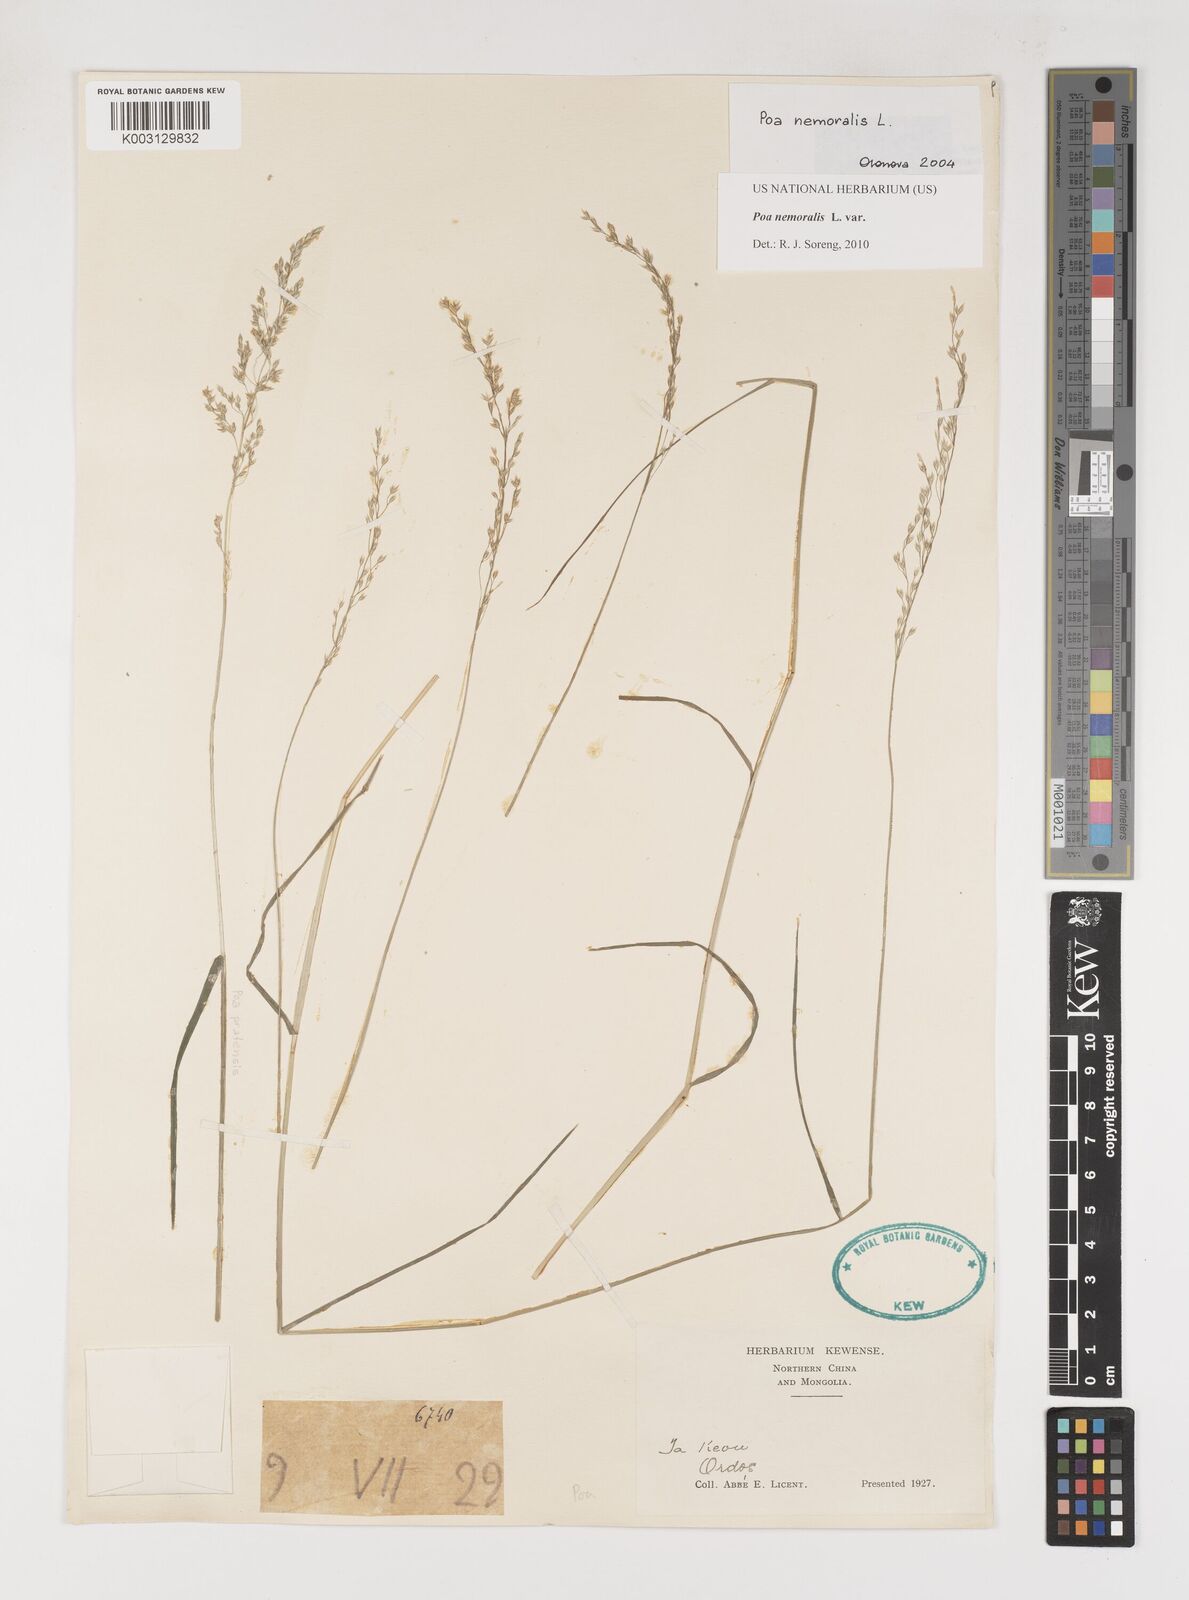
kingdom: Plantae
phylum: Tracheophyta
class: Liliopsida
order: Poales
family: Poaceae
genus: Poa
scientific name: Poa nemoralis
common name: Wood bluegrass
